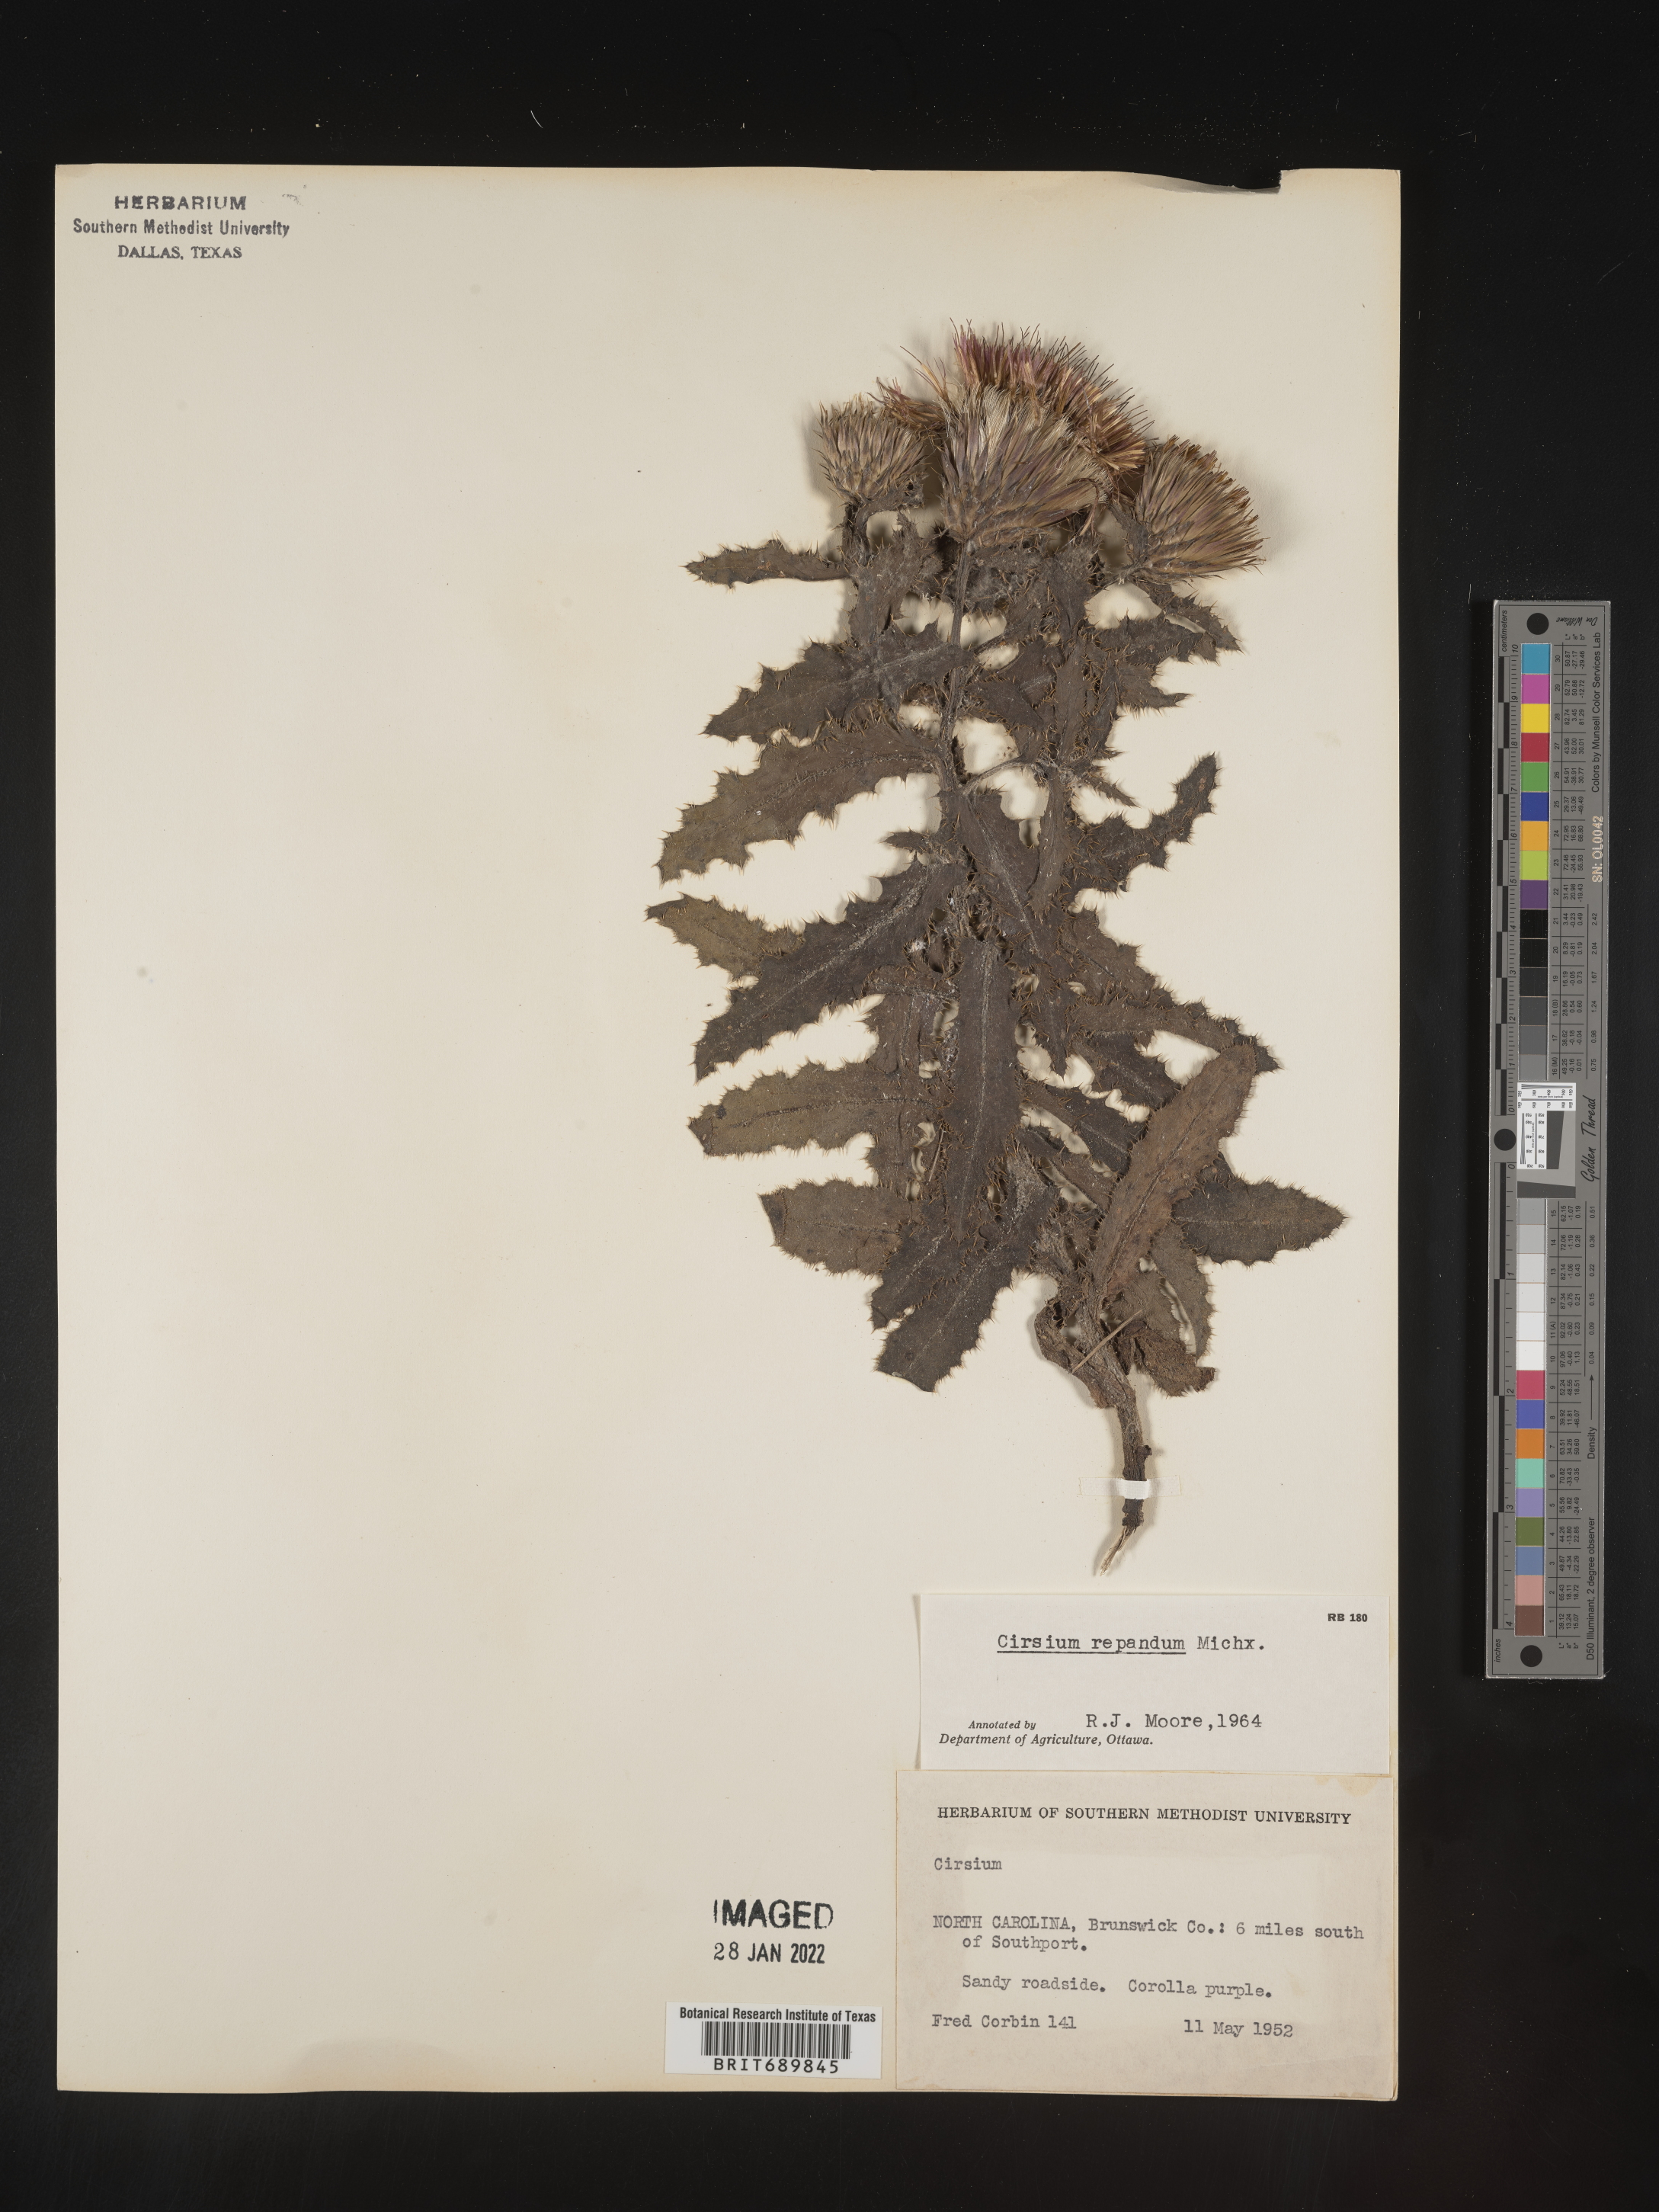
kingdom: Plantae
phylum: Tracheophyta
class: Magnoliopsida
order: Asterales
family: Asteraceae
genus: Cirsium
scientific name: Cirsium repandum
